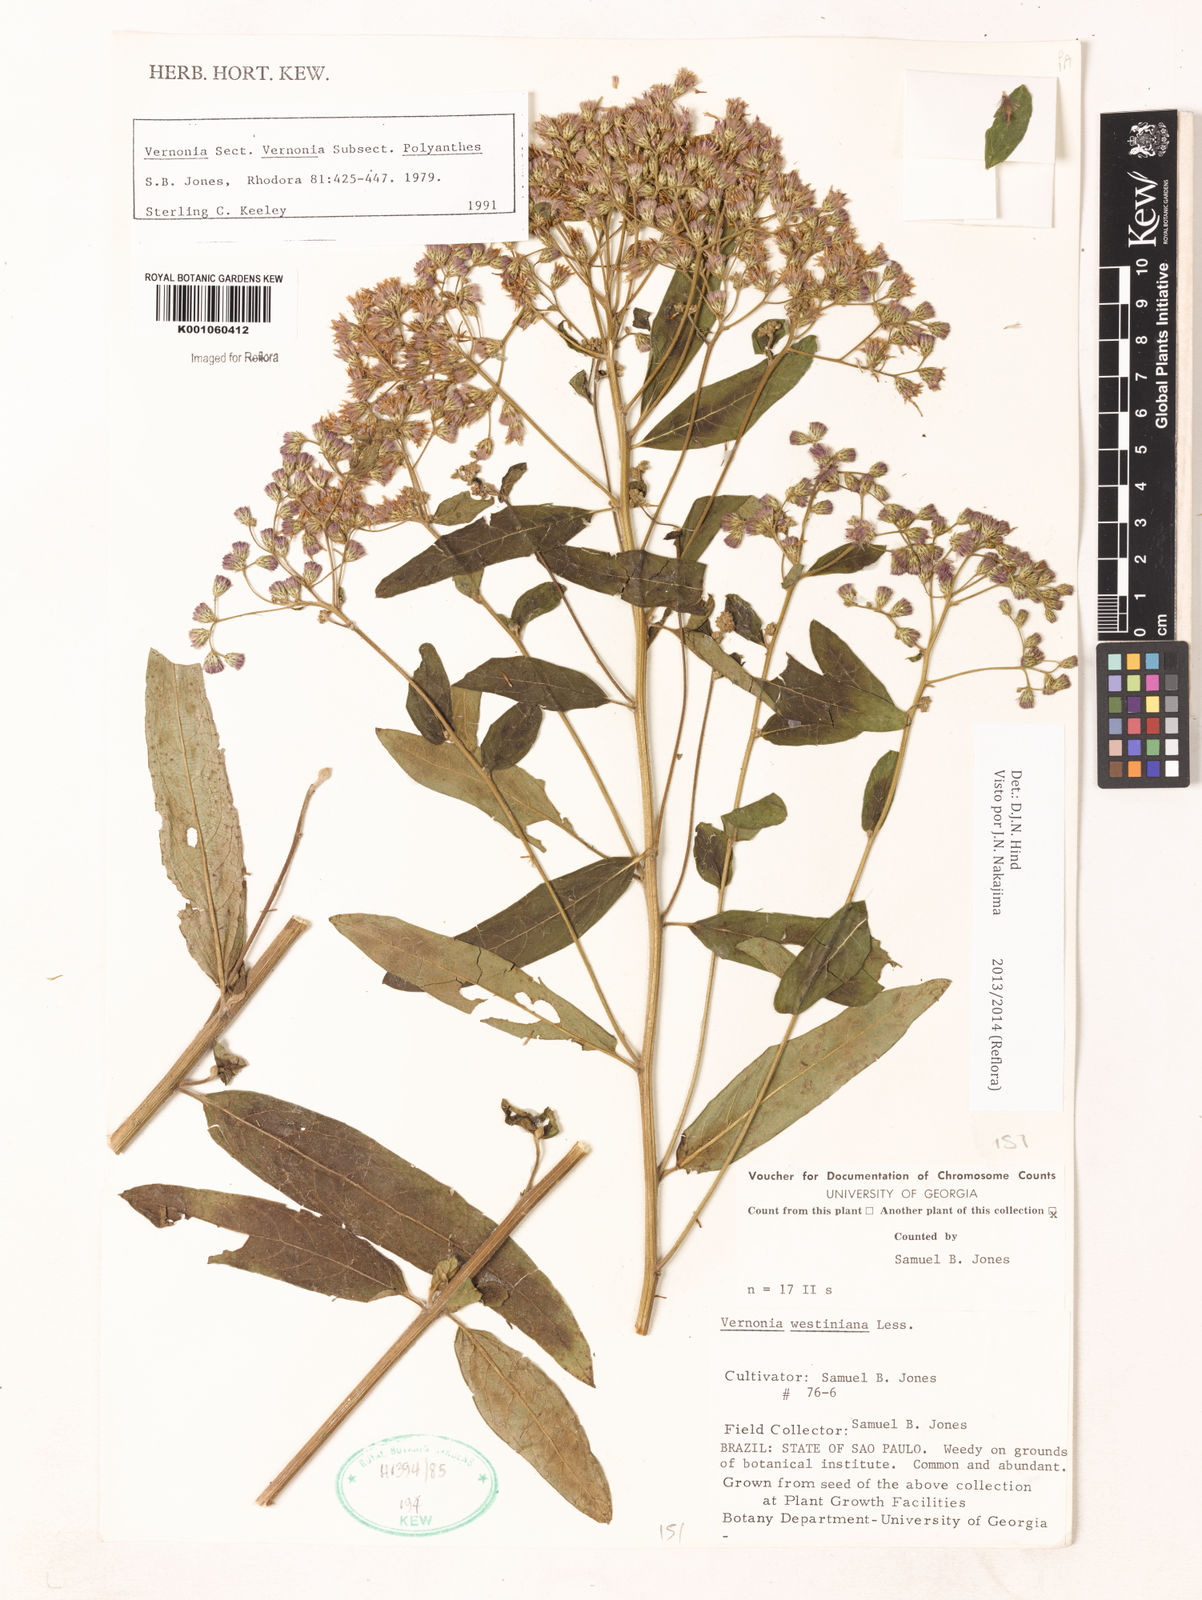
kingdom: Plantae
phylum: Tracheophyta
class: Magnoliopsida
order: Asterales
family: Asteraceae
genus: Vernonanthura
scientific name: Vernonanthura westiniana
